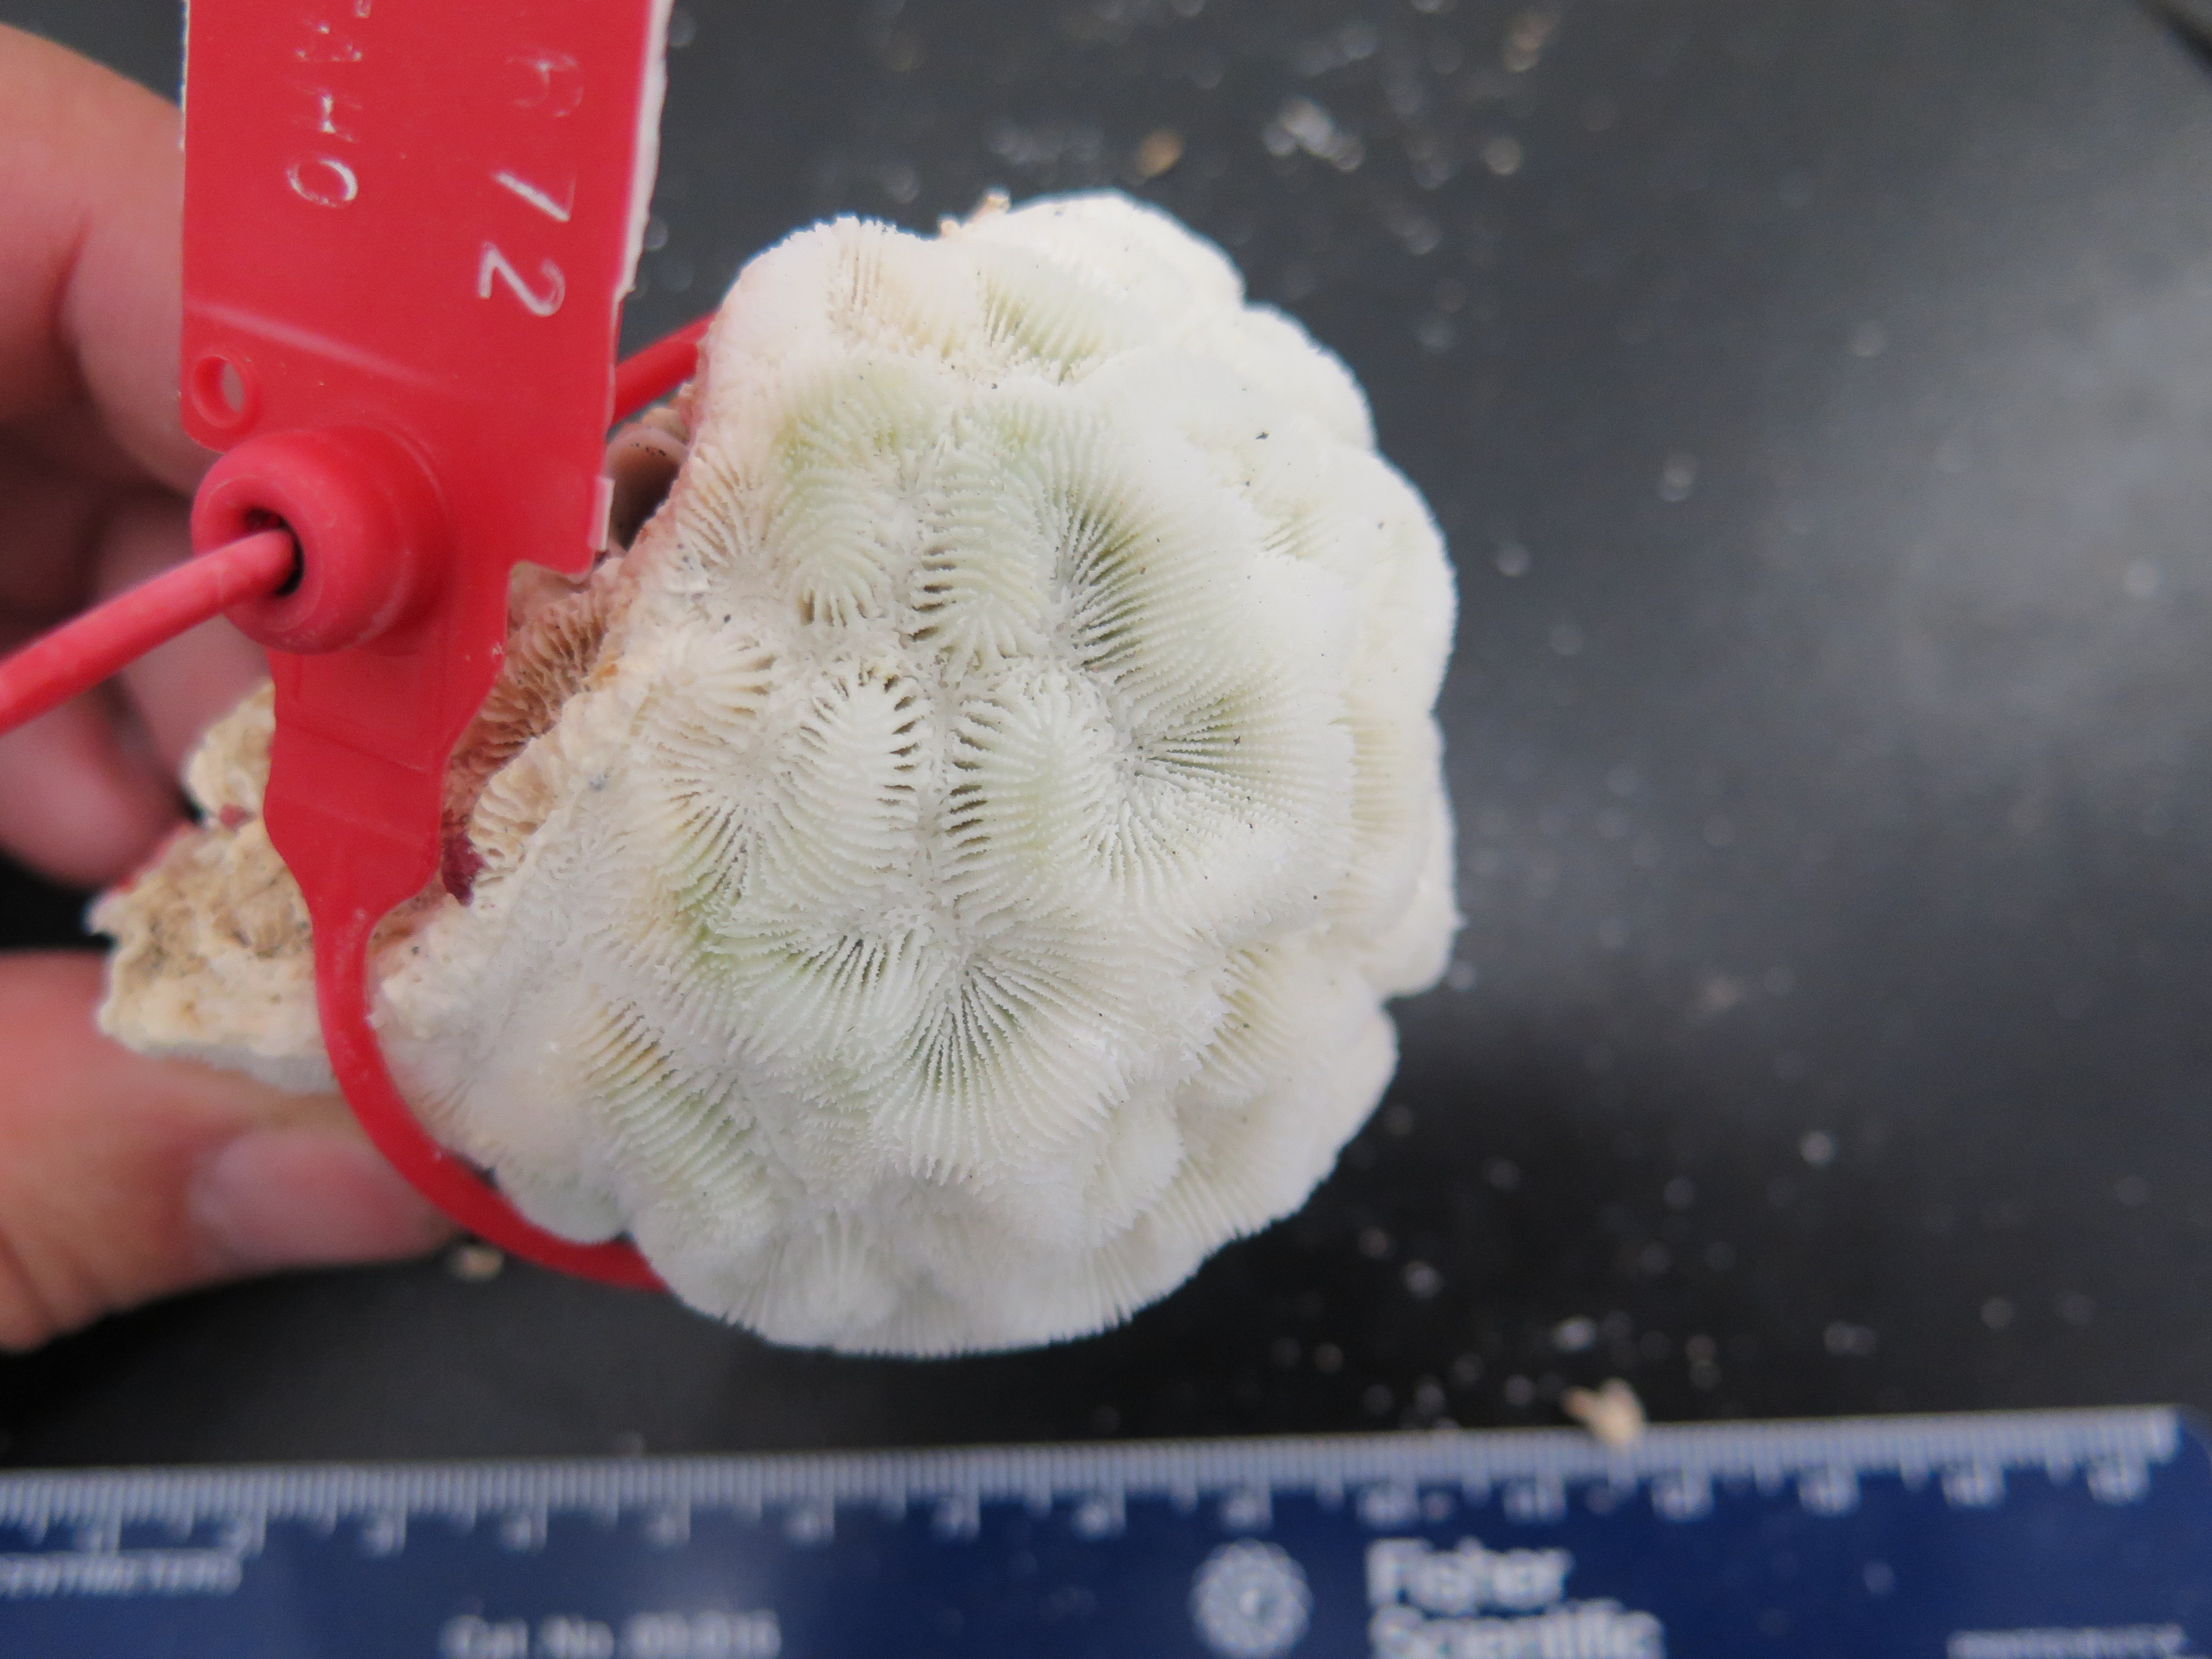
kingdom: Animalia
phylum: Cnidaria
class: Anthozoa
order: Scleractinia
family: Faviidae
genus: Pseudodiploria
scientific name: Pseudodiploria strigosa
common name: Symmetrical brain coral
